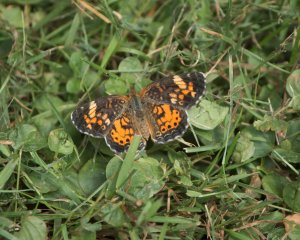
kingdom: Animalia
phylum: Arthropoda
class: Insecta
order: Lepidoptera
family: Nymphalidae
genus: Phyciodes
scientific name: Phyciodes tharos
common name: Northern Crescent
